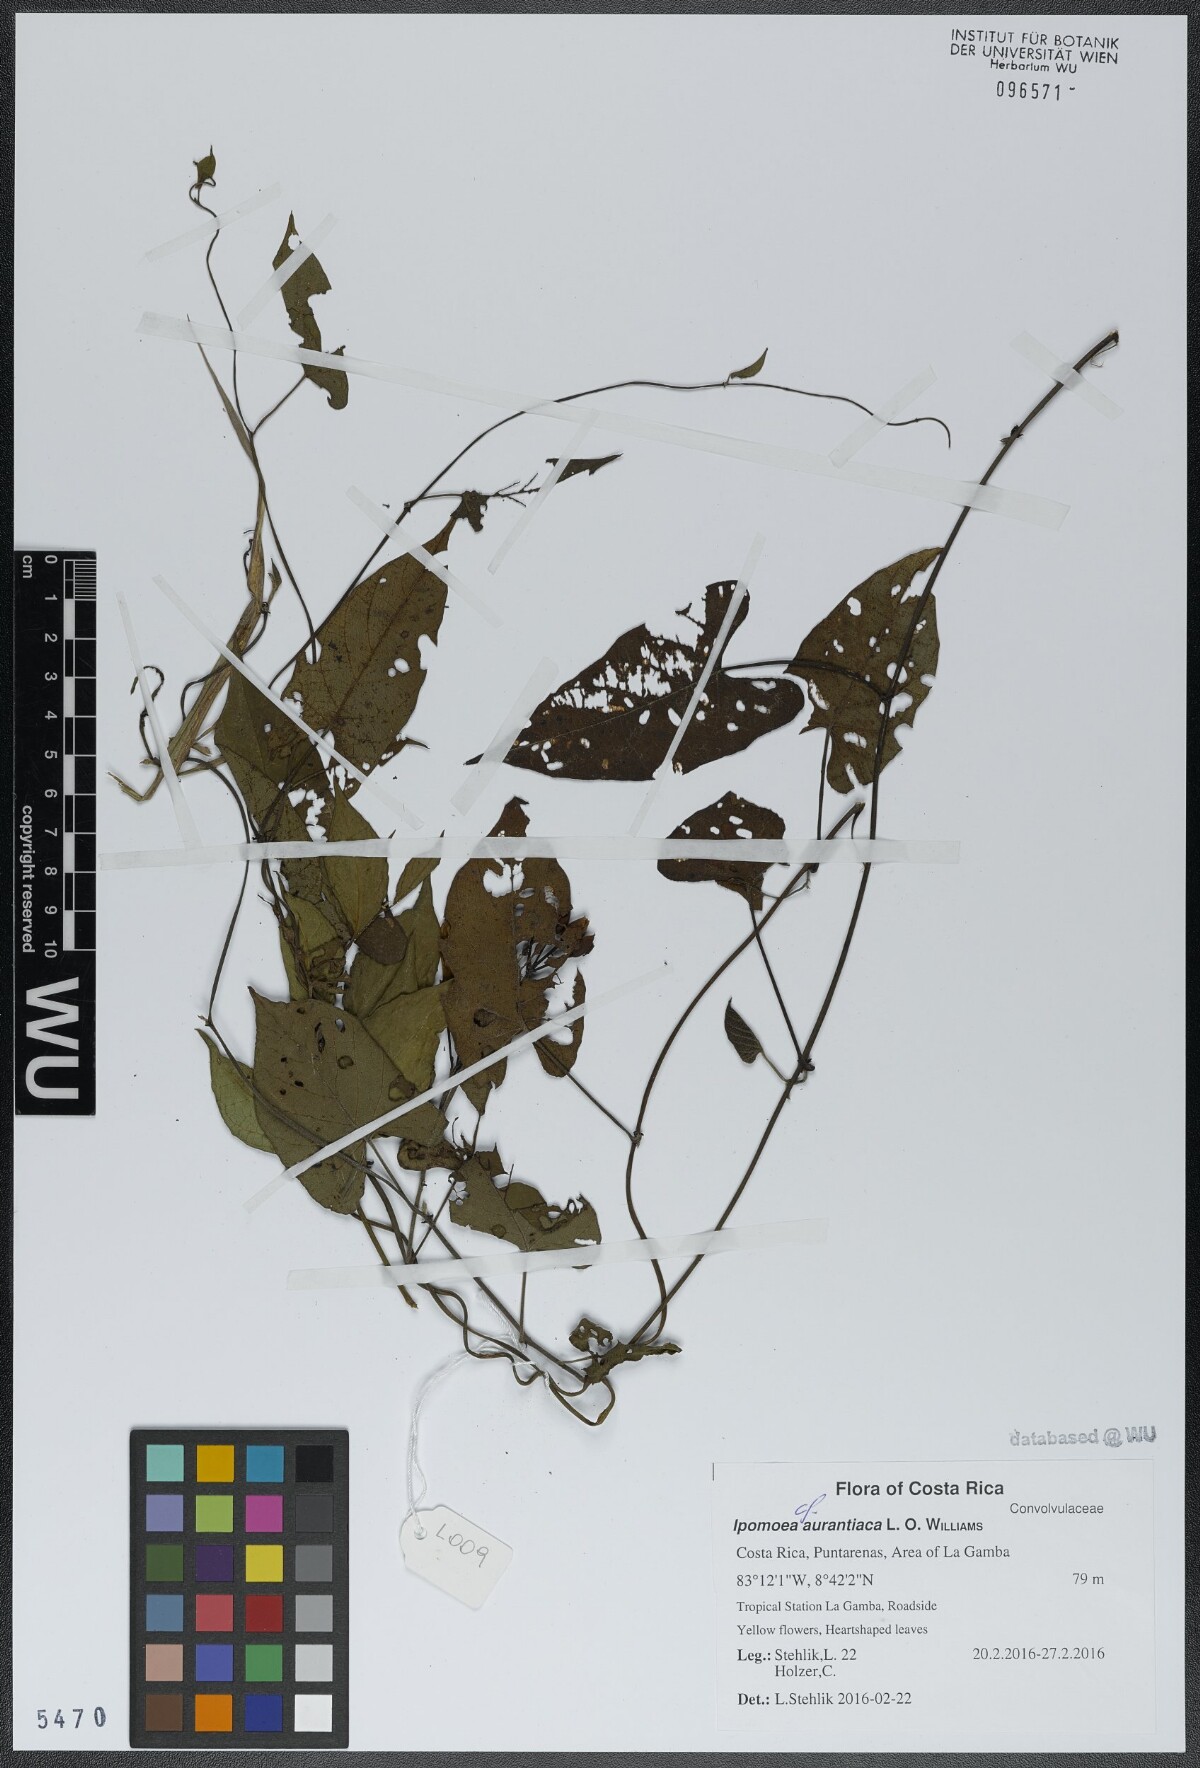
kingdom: Plantae
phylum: Tracheophyta
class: Magnoliopsida
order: Solanales
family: Convolvulaceae
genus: Ipomoea
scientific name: Ipomoea aurantiaca
